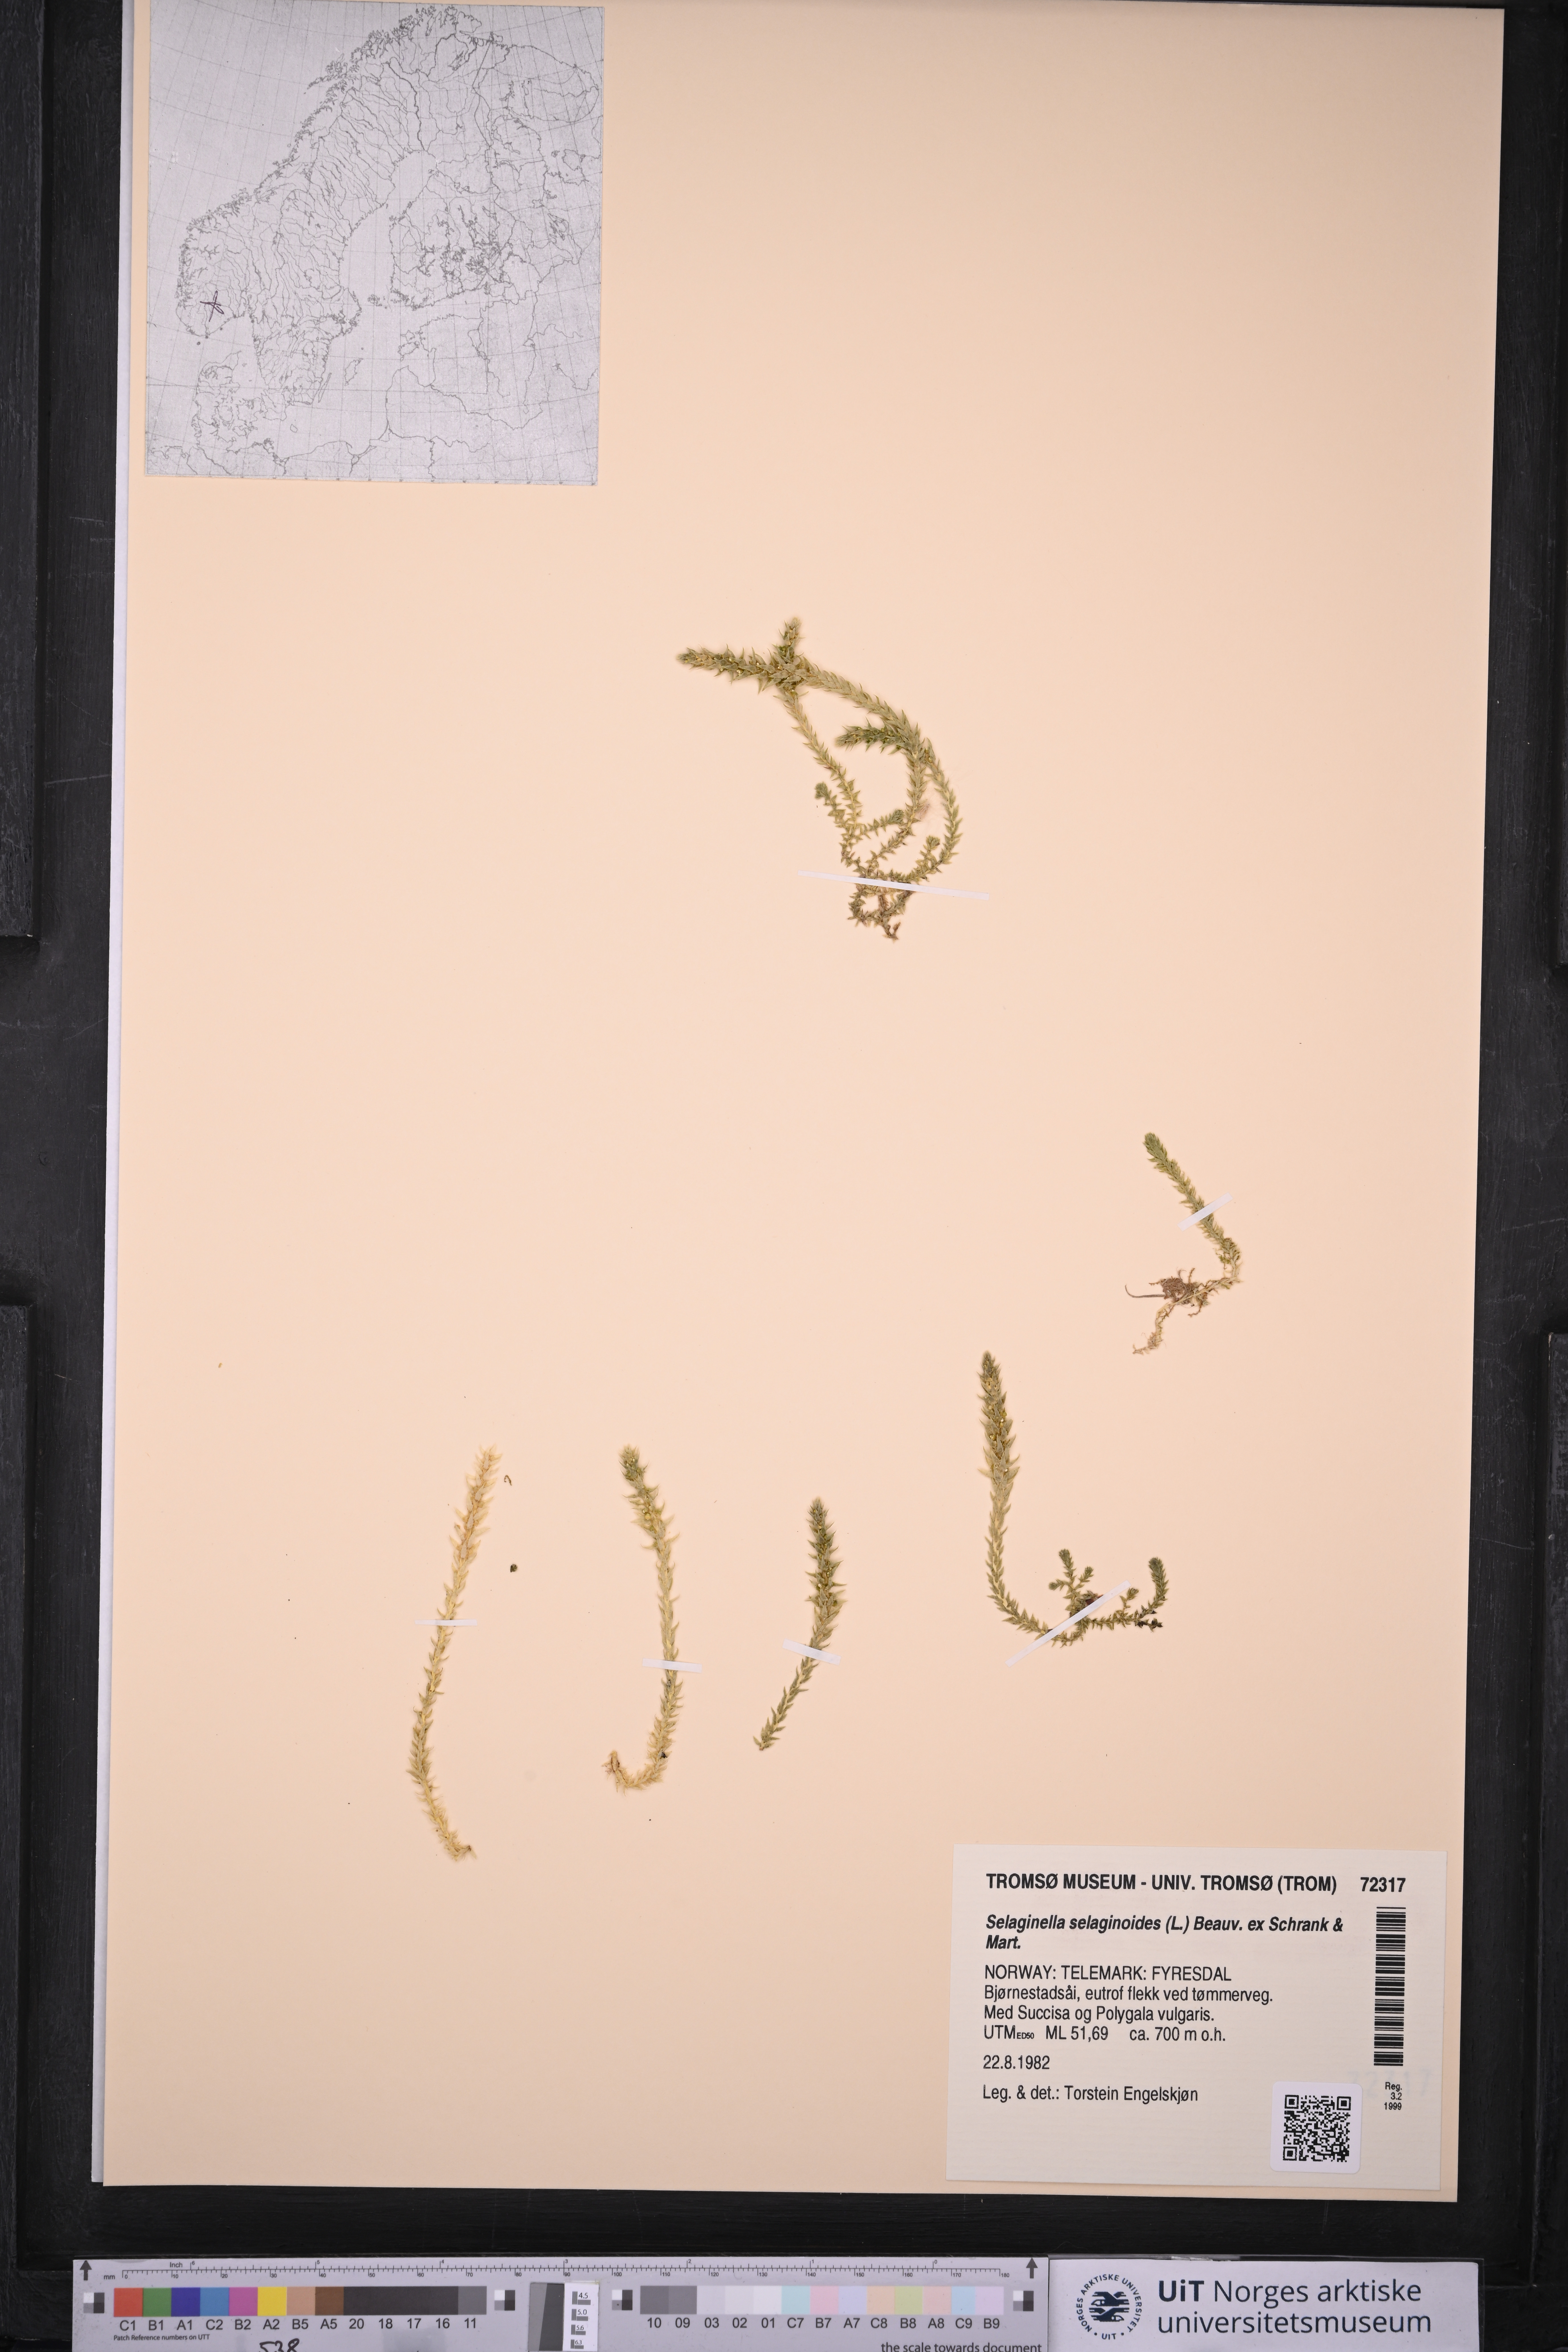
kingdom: Plantae
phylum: Tracheophyta
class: Lycopodiopsida
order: Selaginellales
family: Selaginellaceae
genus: Selaginella
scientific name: Selaginella selaginoides
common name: Prickly mountain-moss
